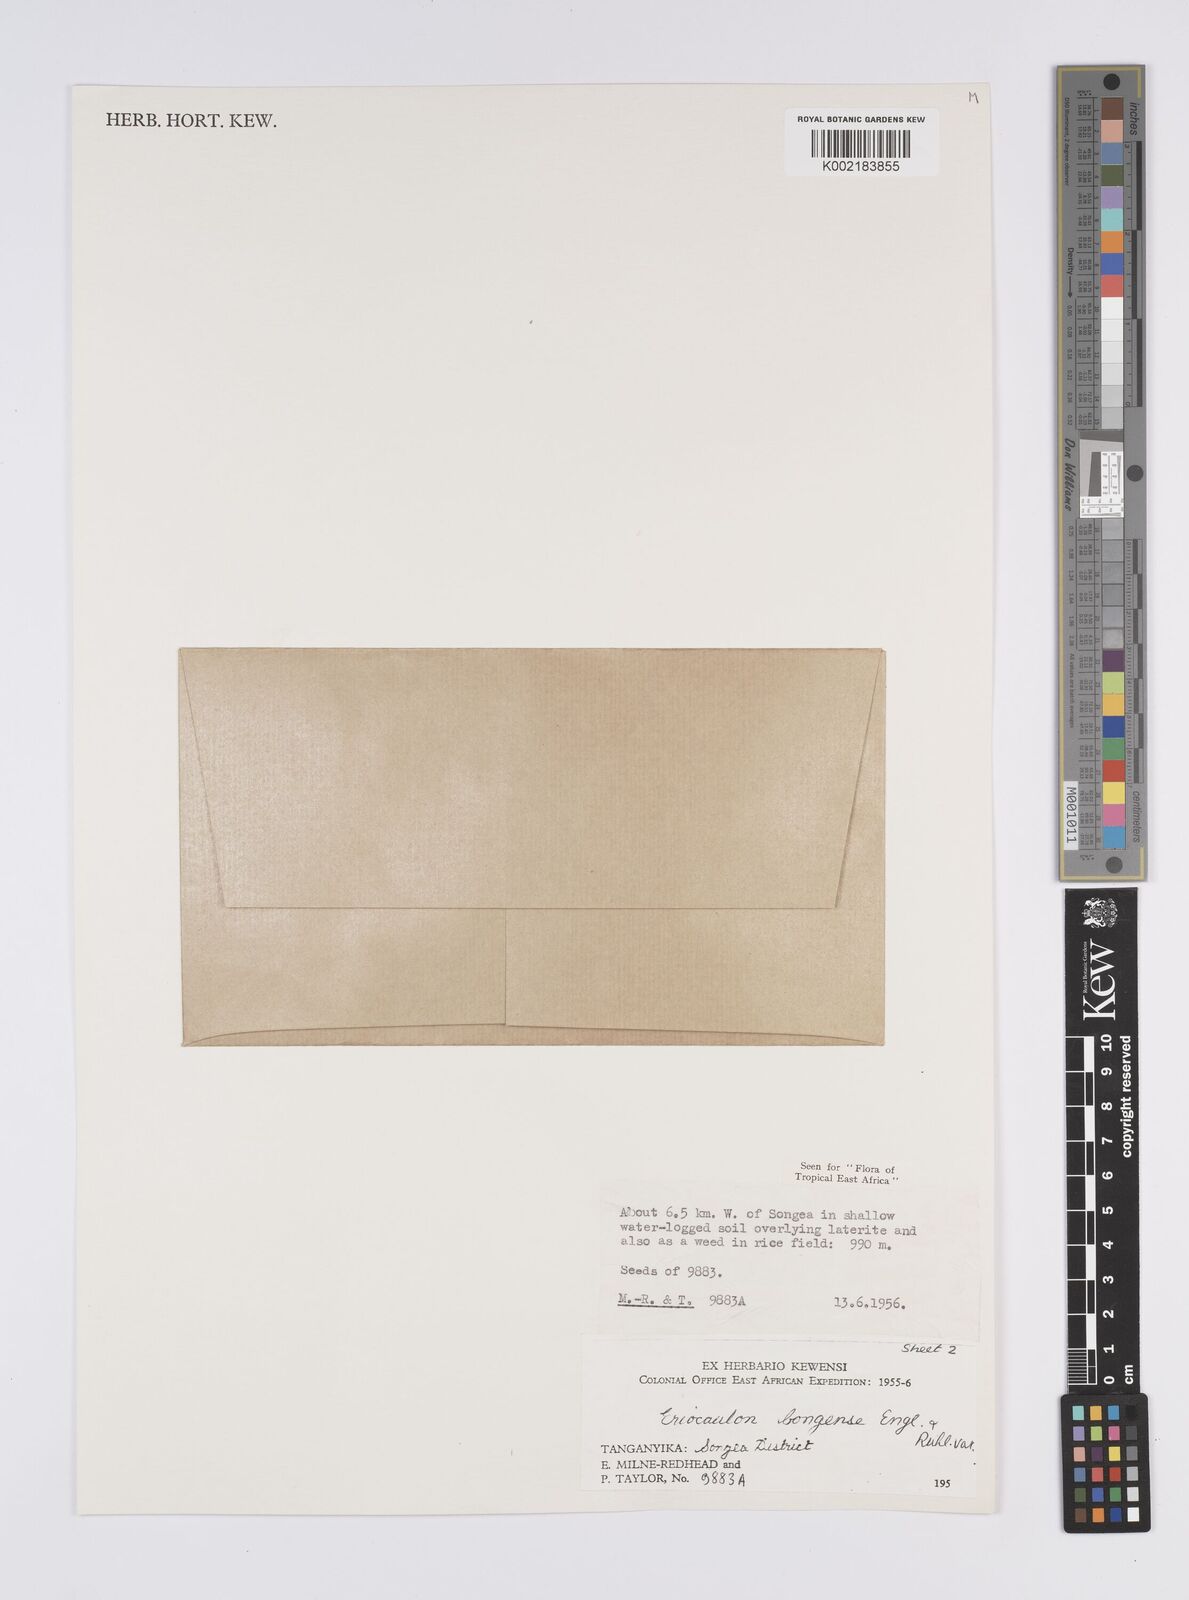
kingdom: Plantae
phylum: Tracheophyta
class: Liliopsida
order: Poales
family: Eriocaulaceae
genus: Eriocaulon
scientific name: Eriocaulon bongense
